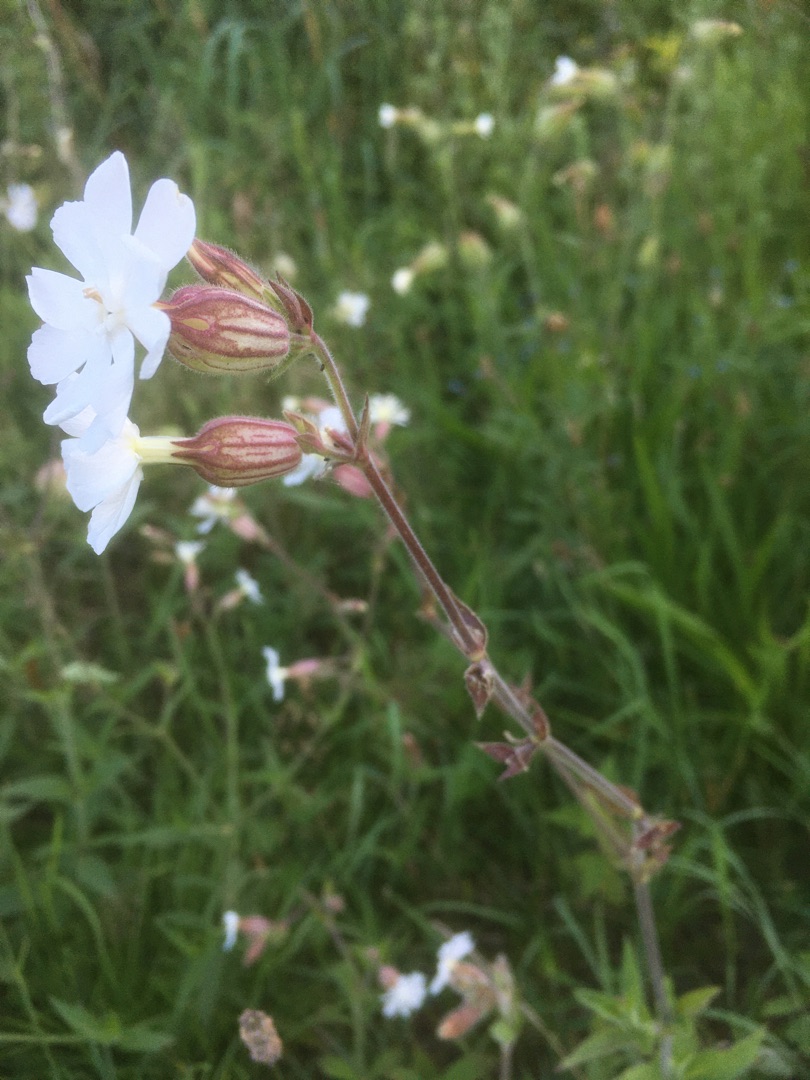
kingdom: Plantae
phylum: Tracheophyta
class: Magnoliopsida
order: Caryophyllales
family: Caryophyllaceae
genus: Silene
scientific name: Silene latifolia
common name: Aftenpragtstjerne
